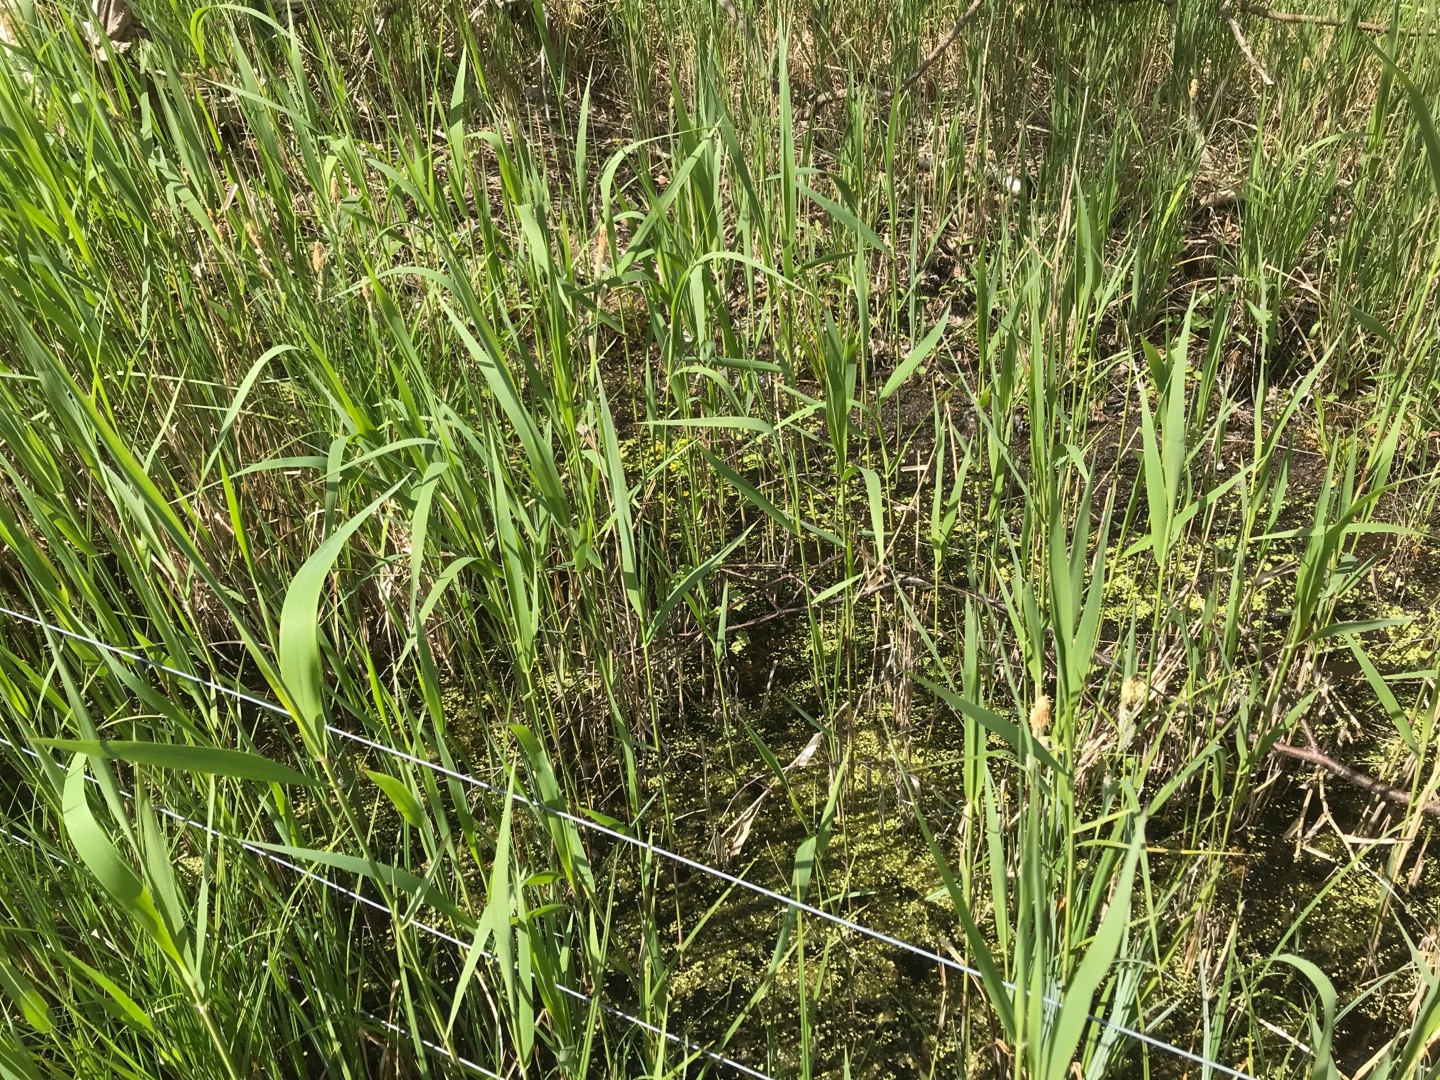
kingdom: Plantae
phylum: Tracheophyta
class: Magnoliopsida
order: Brassicales
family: Brassicaceae
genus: Rorippa
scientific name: Rorippa amphibia
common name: Vandpeberrod
